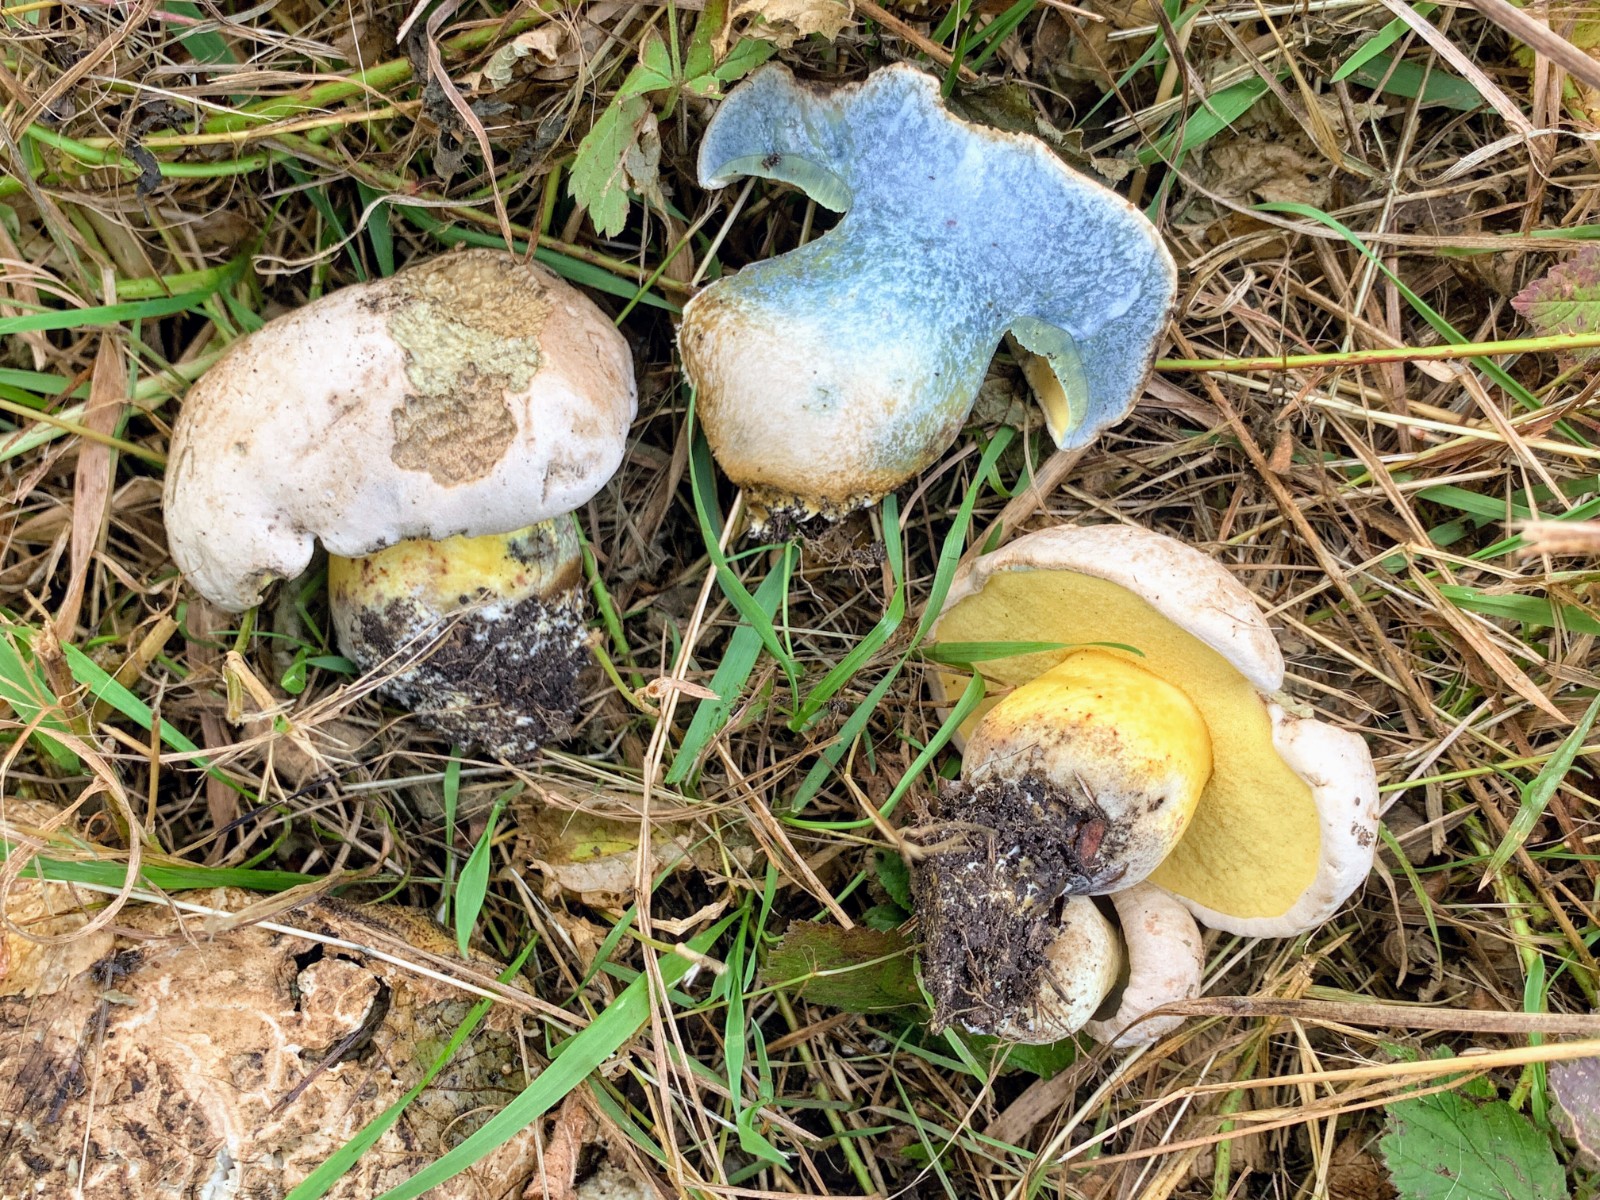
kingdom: Fungi
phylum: Basidiomycota
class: Agaricomycetes
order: Boletales
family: Boletaceae
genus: Caloboletus
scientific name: Caloboletus radicans
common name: rod-rørhat
